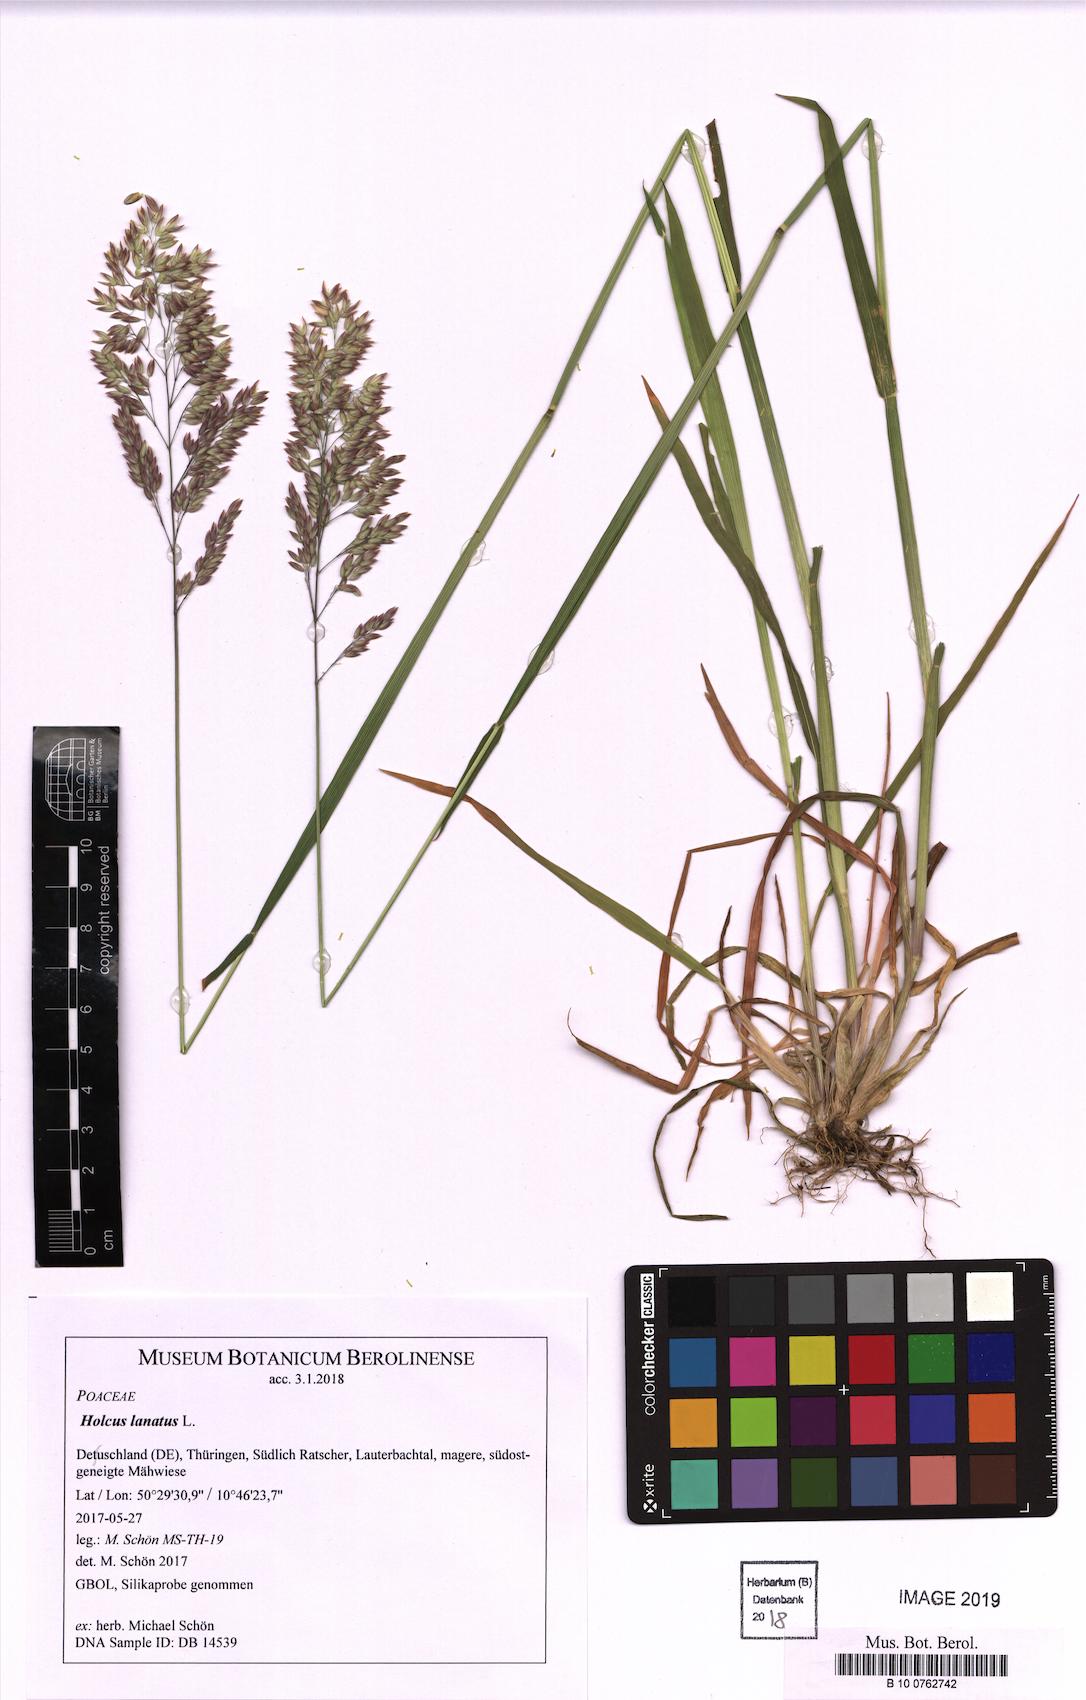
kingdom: Plantae
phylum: Tracheophyta
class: Liliopsida
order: Poales
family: Poaceae
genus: Holcus
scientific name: Holcus lanatus
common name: Yorkshire-fog
